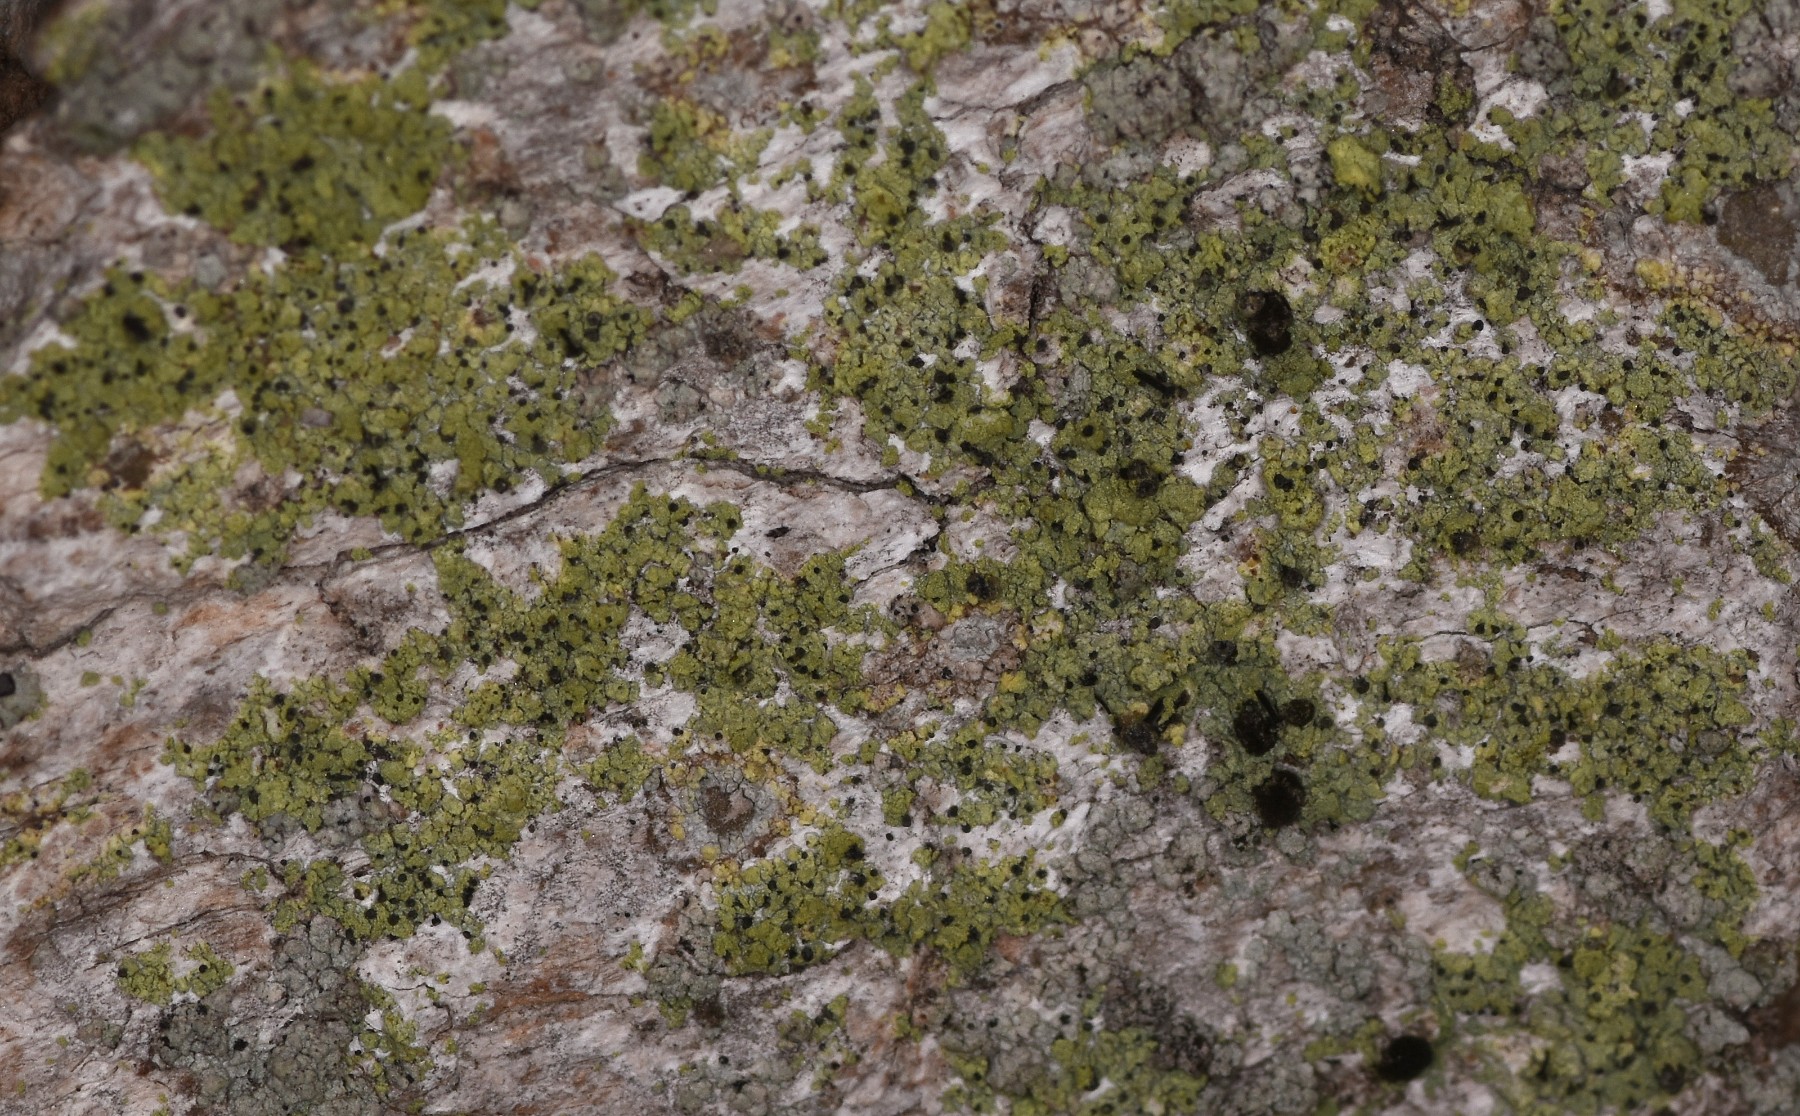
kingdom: Fungi
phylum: Ascomycota
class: Lecanoromycetes
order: Caliciales
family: Caliciaceae
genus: Calicium
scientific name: Calicium viride
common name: gulgrøn nålelav
